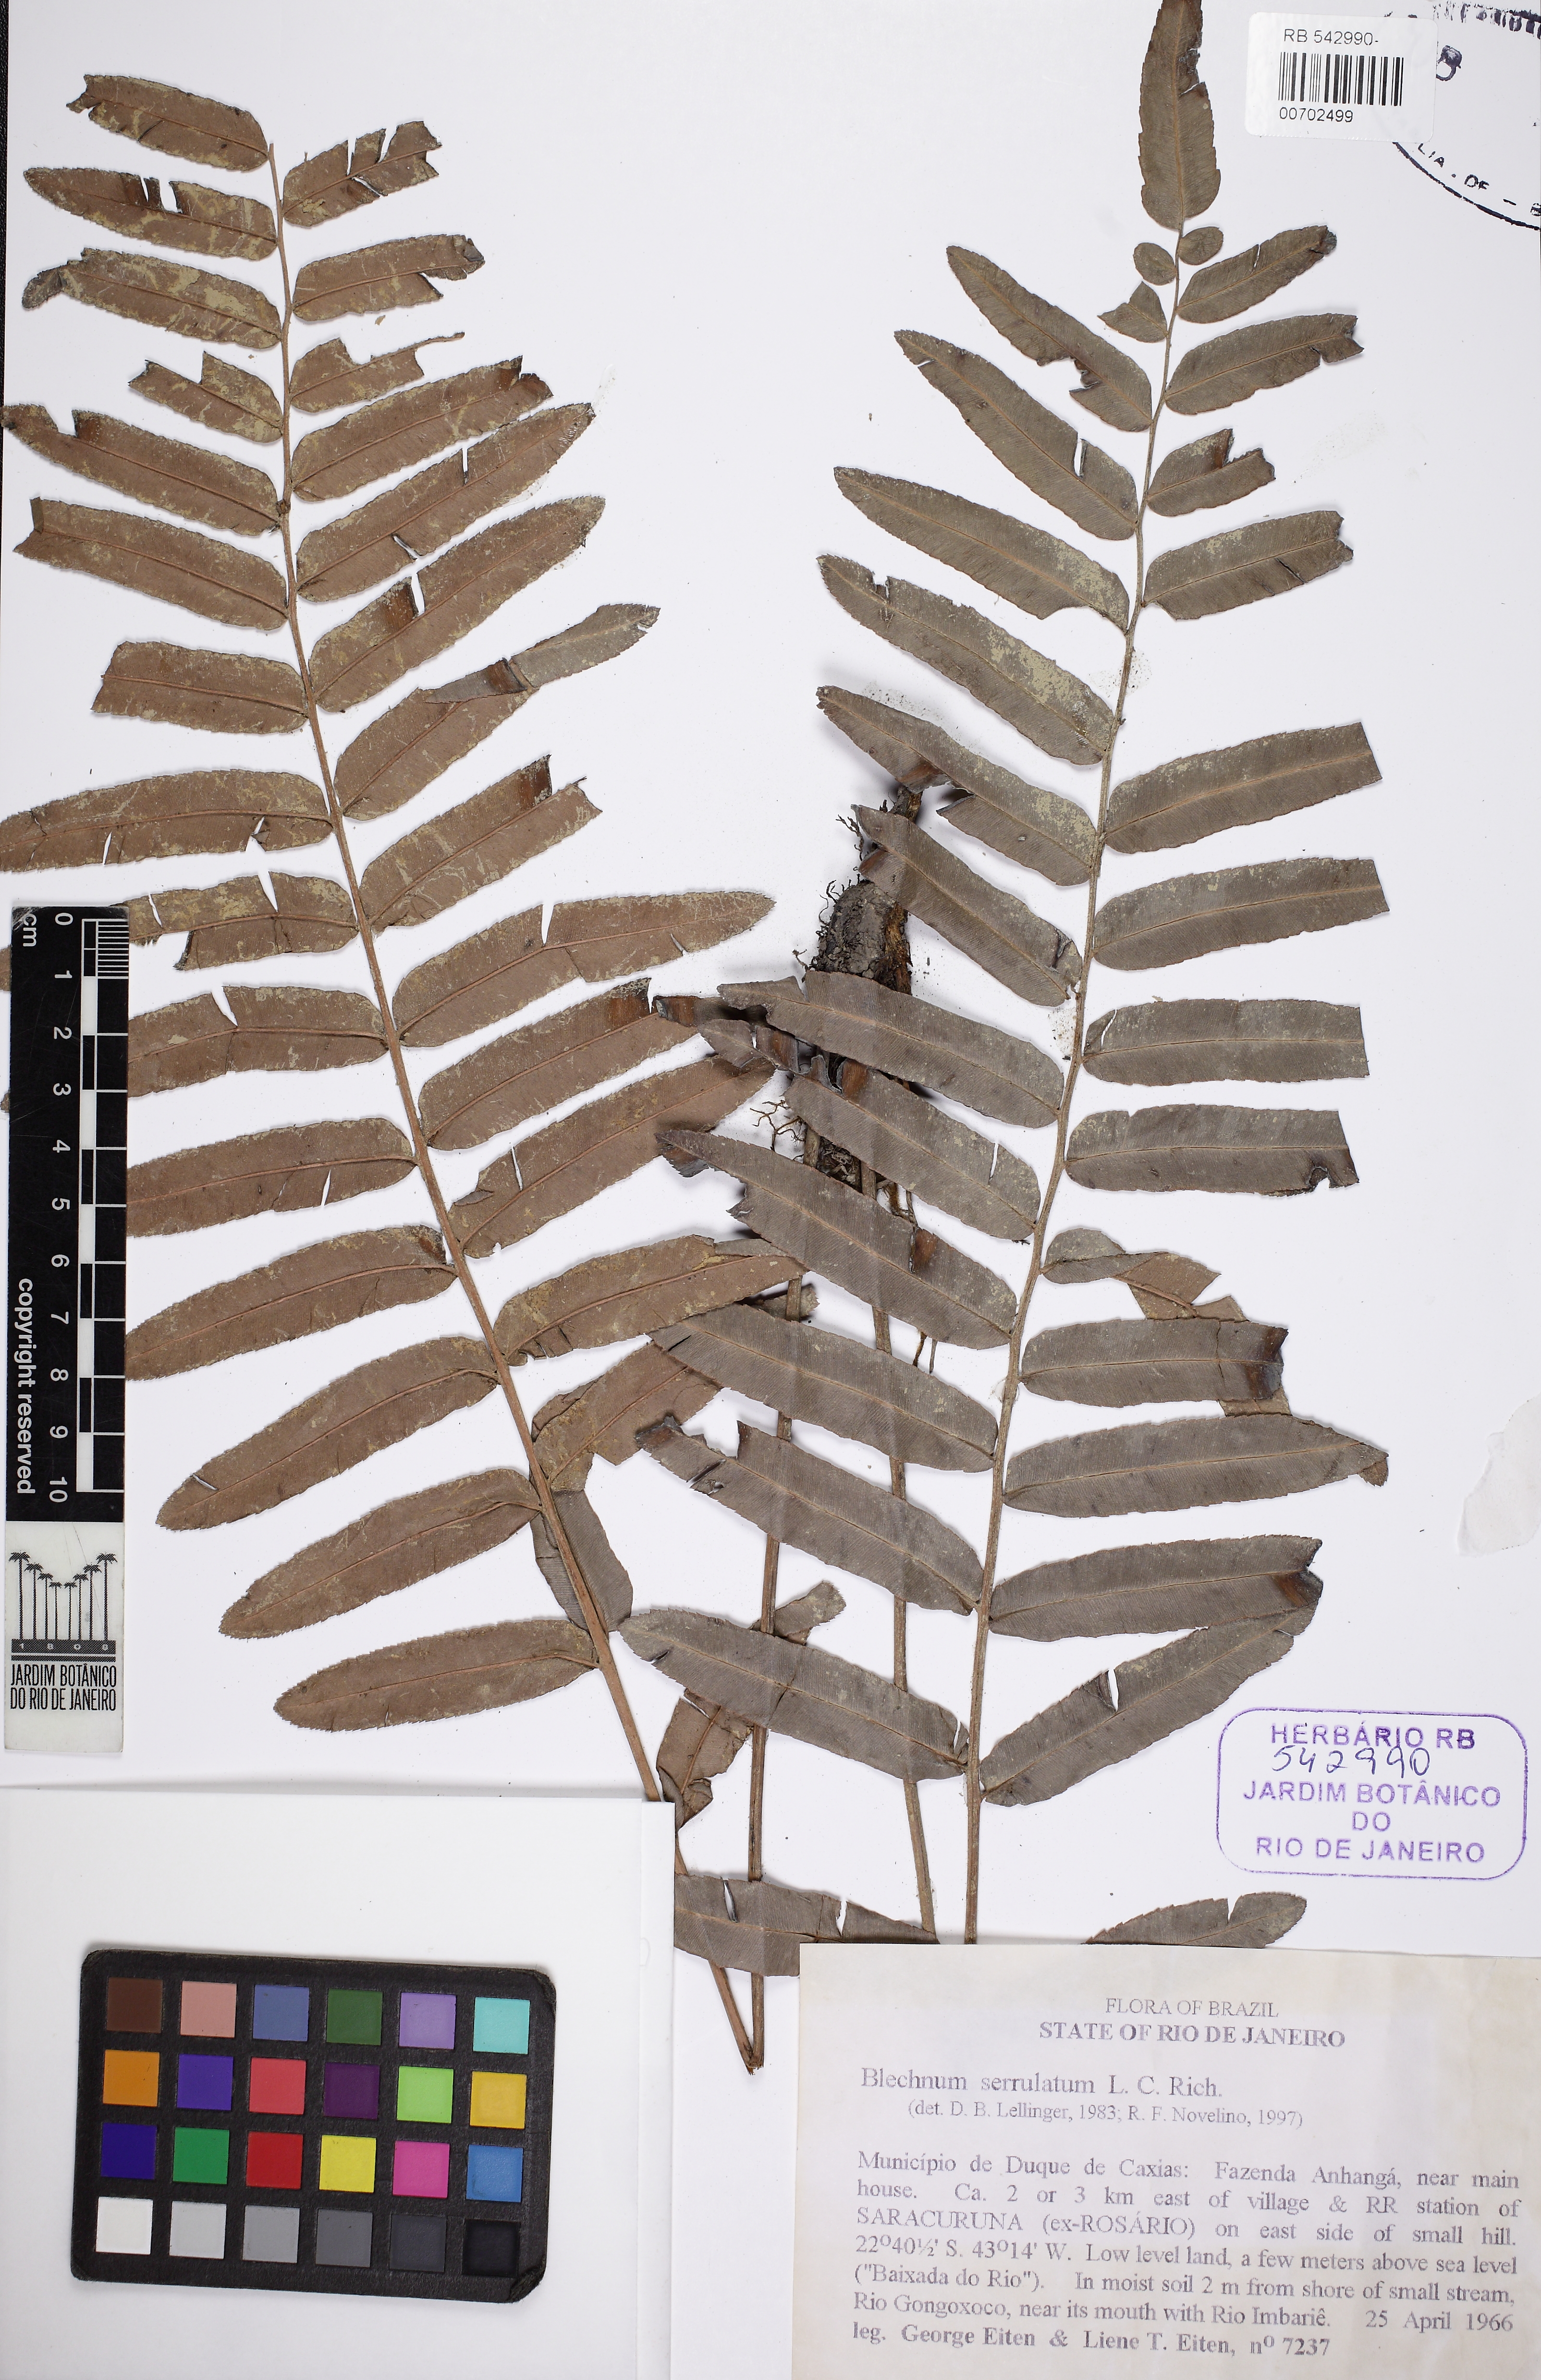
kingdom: Plantae
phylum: Tracheophyta
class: Polypodiopsida
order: Polypodiales
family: Blechnaceae
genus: Telmatoblechnum
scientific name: Telmatoblechnum serrulatum
